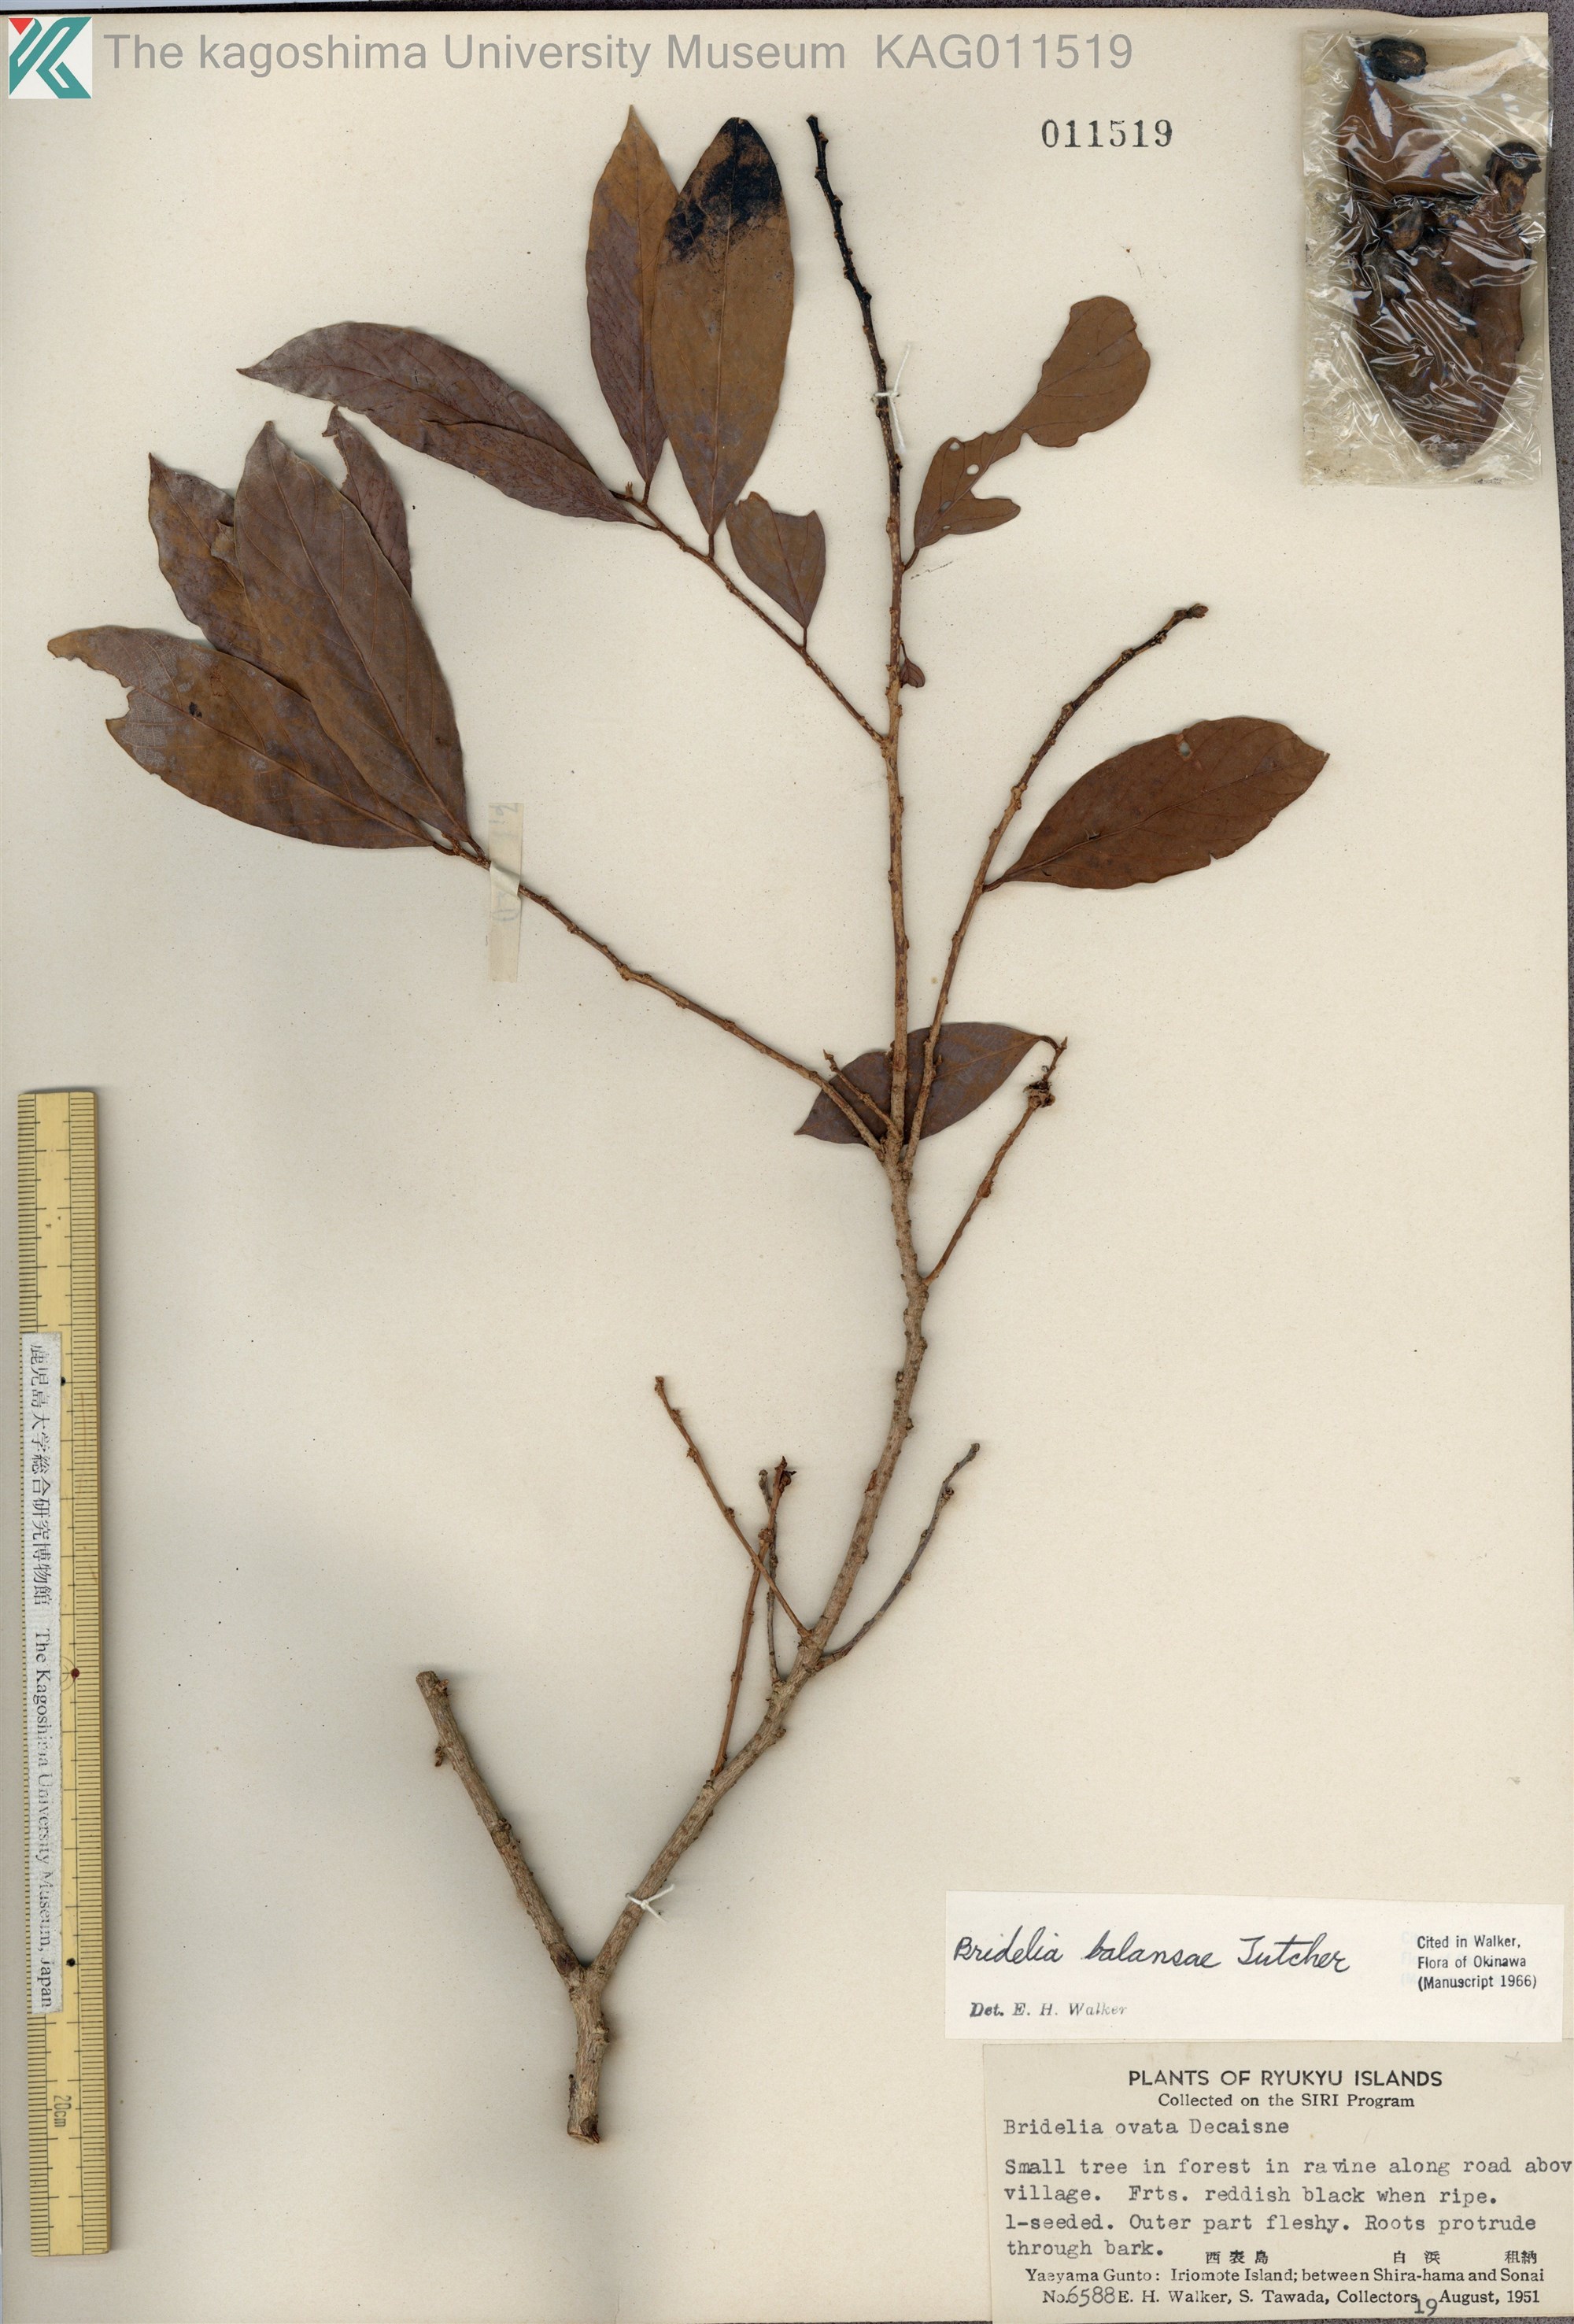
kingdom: Plantae
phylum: Tracheophyta
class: Magnoliopsida
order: Malpighiales
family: Phyllanthaceae
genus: Bridelia
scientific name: Bridelia balansae
